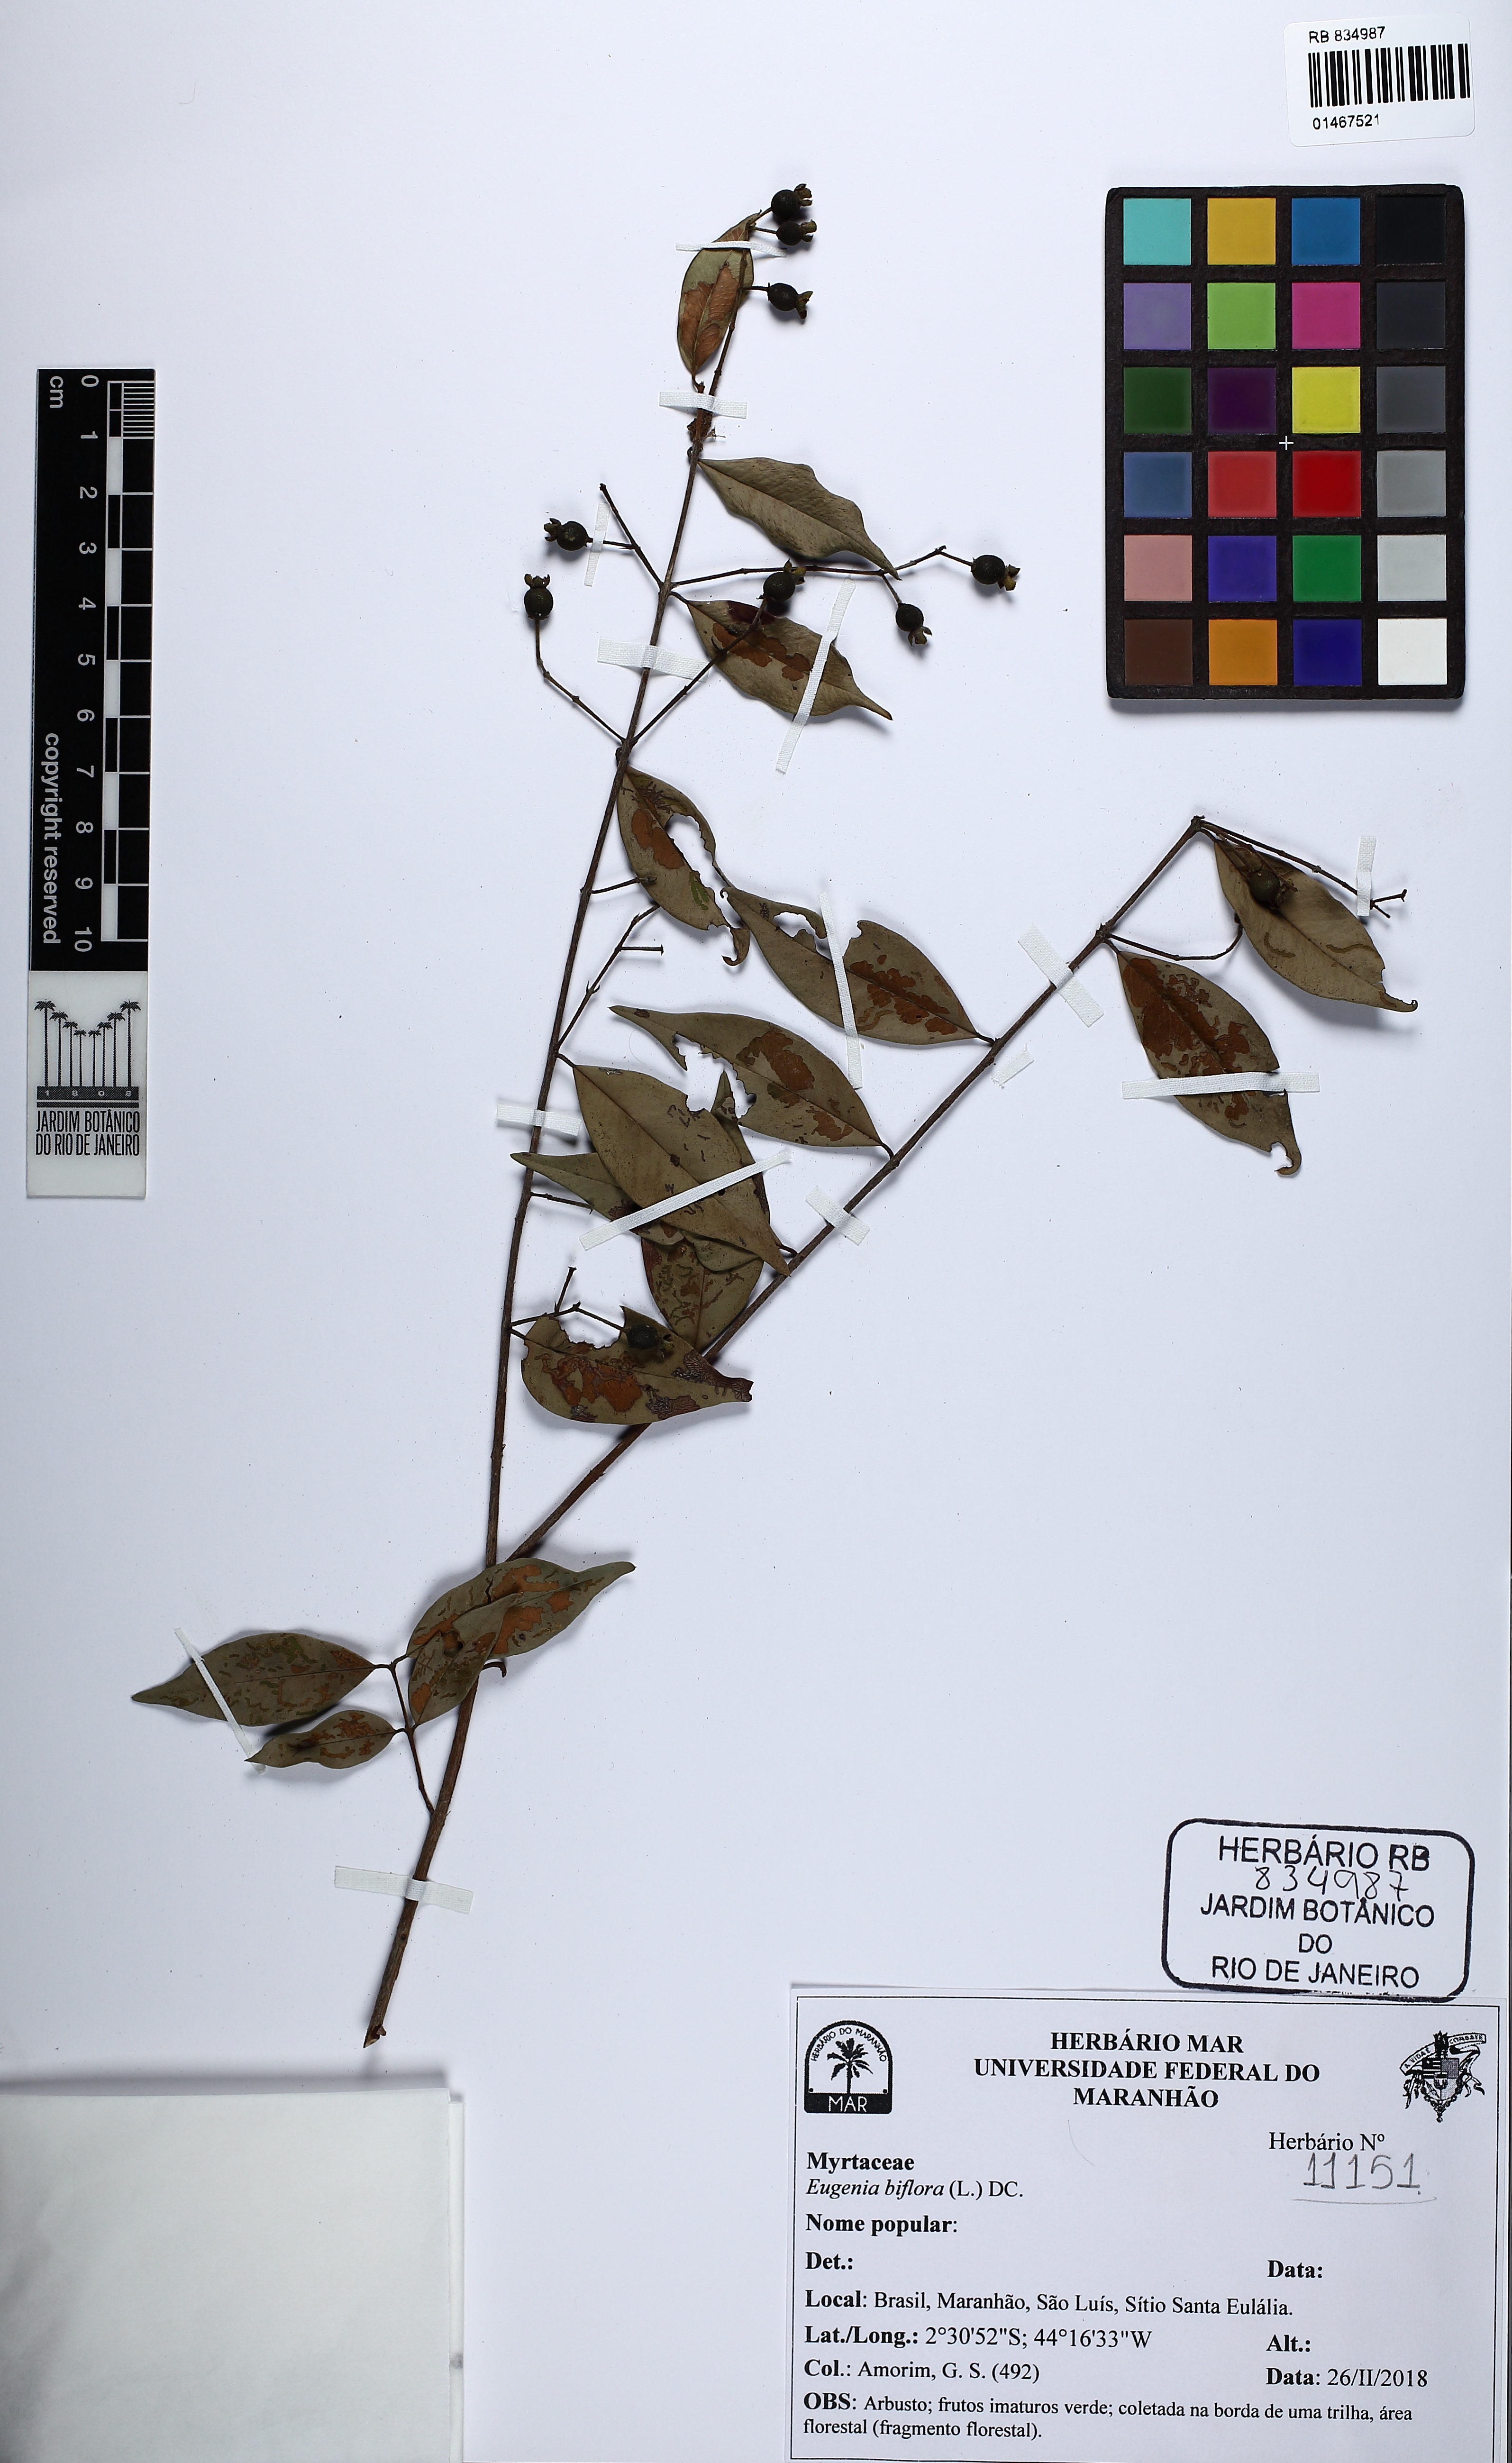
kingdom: Plantae
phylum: Tracheophyta
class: Magnoliopsida
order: Myrtales
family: Myrtaceae
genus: Eugenia
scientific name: Eugenia biflora
